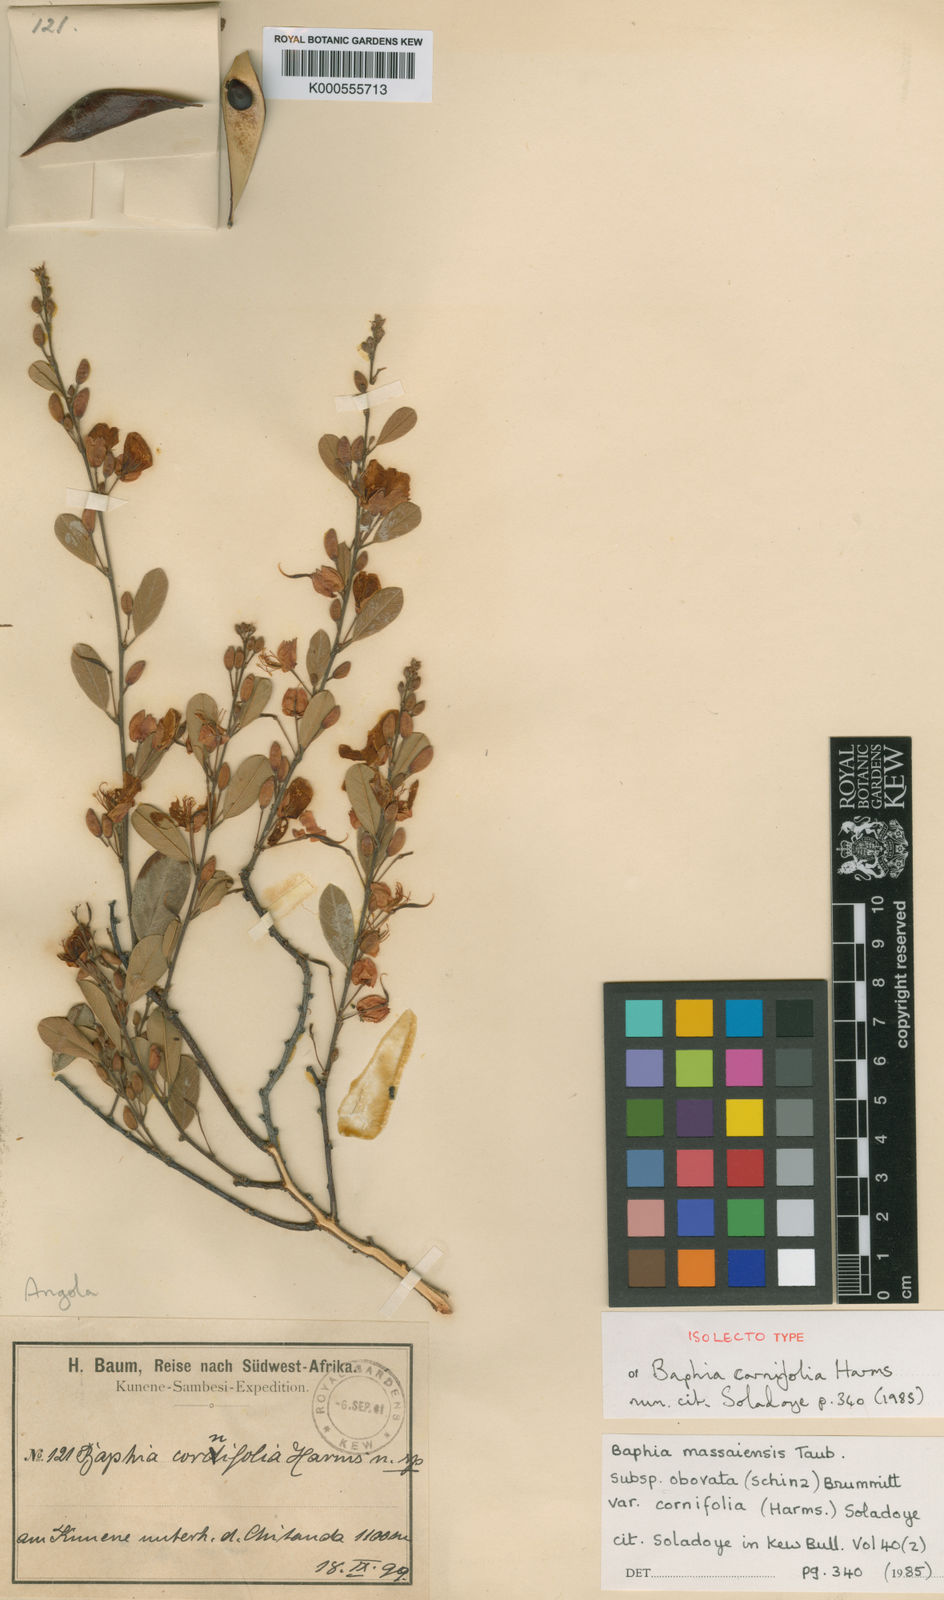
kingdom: Plantae
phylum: Tracheophyta
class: Magnoliopsida
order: Fabales
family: Fabaceae
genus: Baphia
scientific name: Baphia massaiensis
